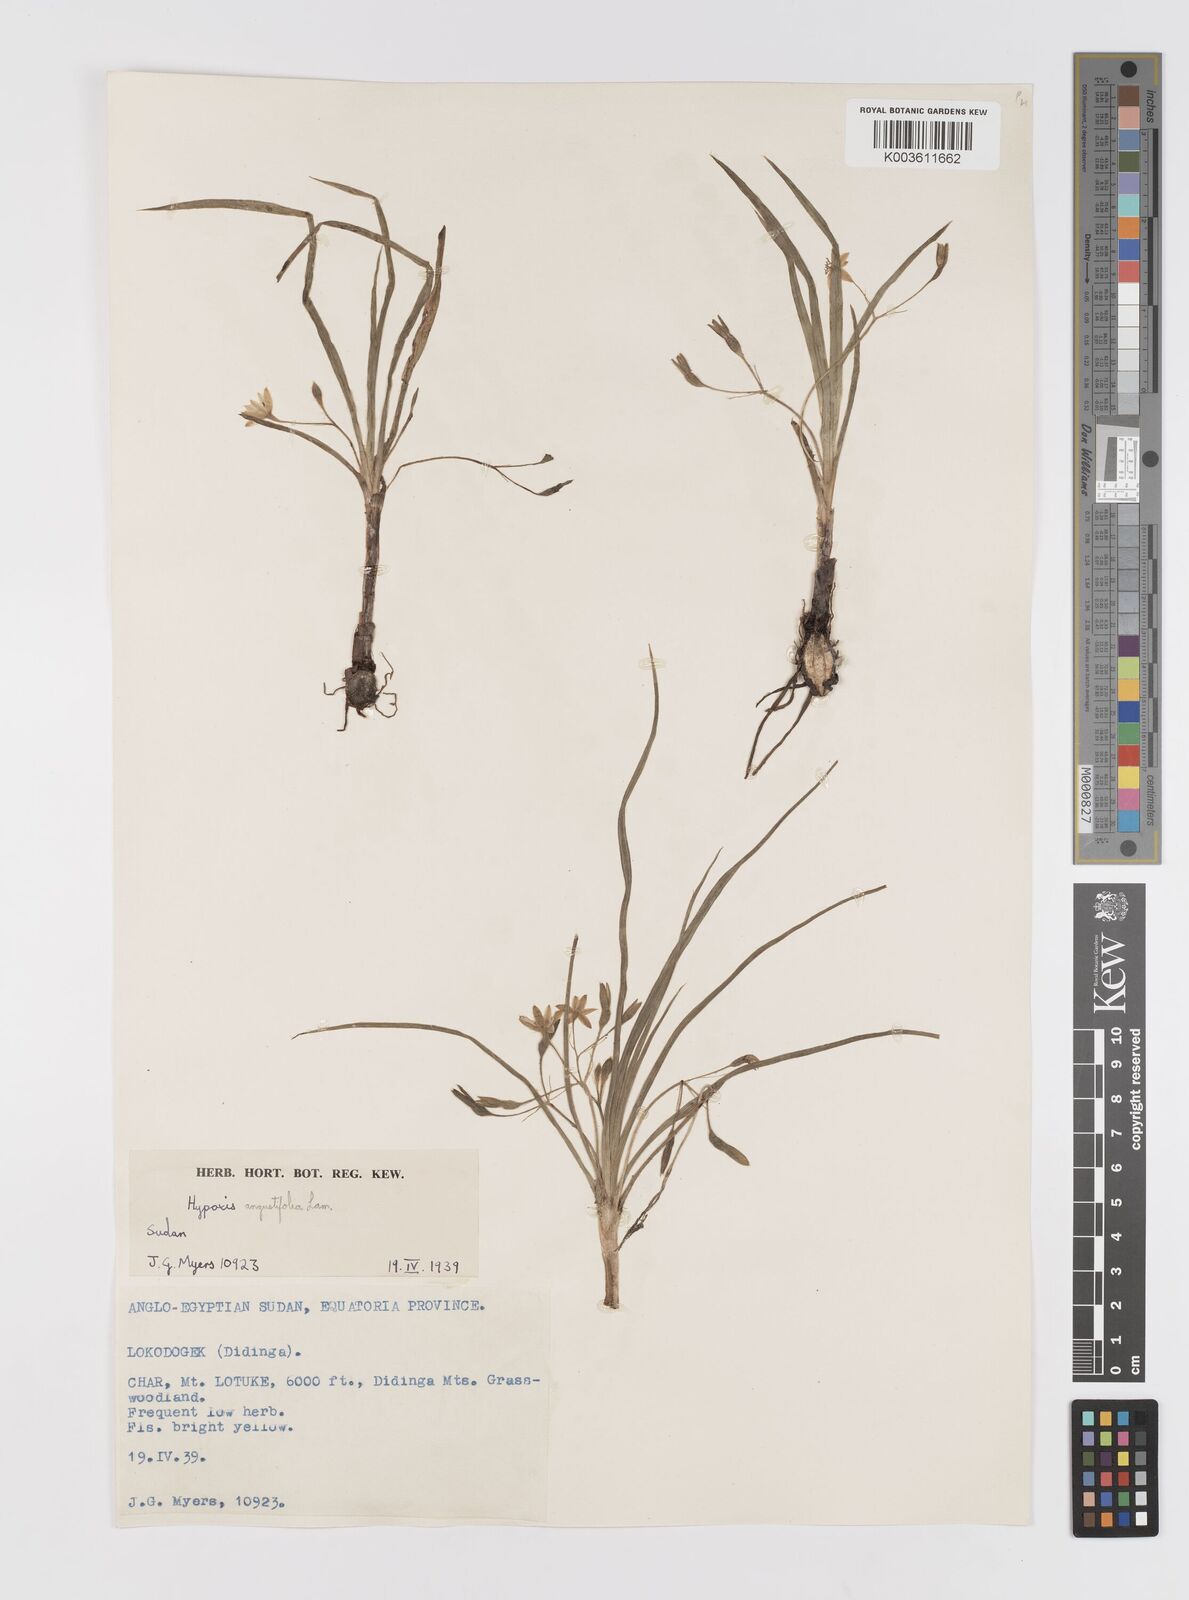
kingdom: Plantae
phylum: Tracheophyta
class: Liliopsida
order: Asparagales
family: Hypoxidaceae
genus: Hypoxis
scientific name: Hypoxis angustifolia
